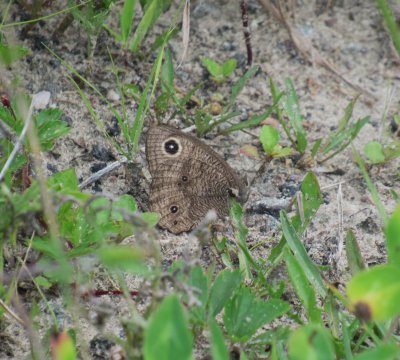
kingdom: Animalia
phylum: Arthropoda
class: Insecta
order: Lepidoptera
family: Nymphalidae
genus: Cercyonis
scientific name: Cercyonis pegala
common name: Common Wood-Nymph
